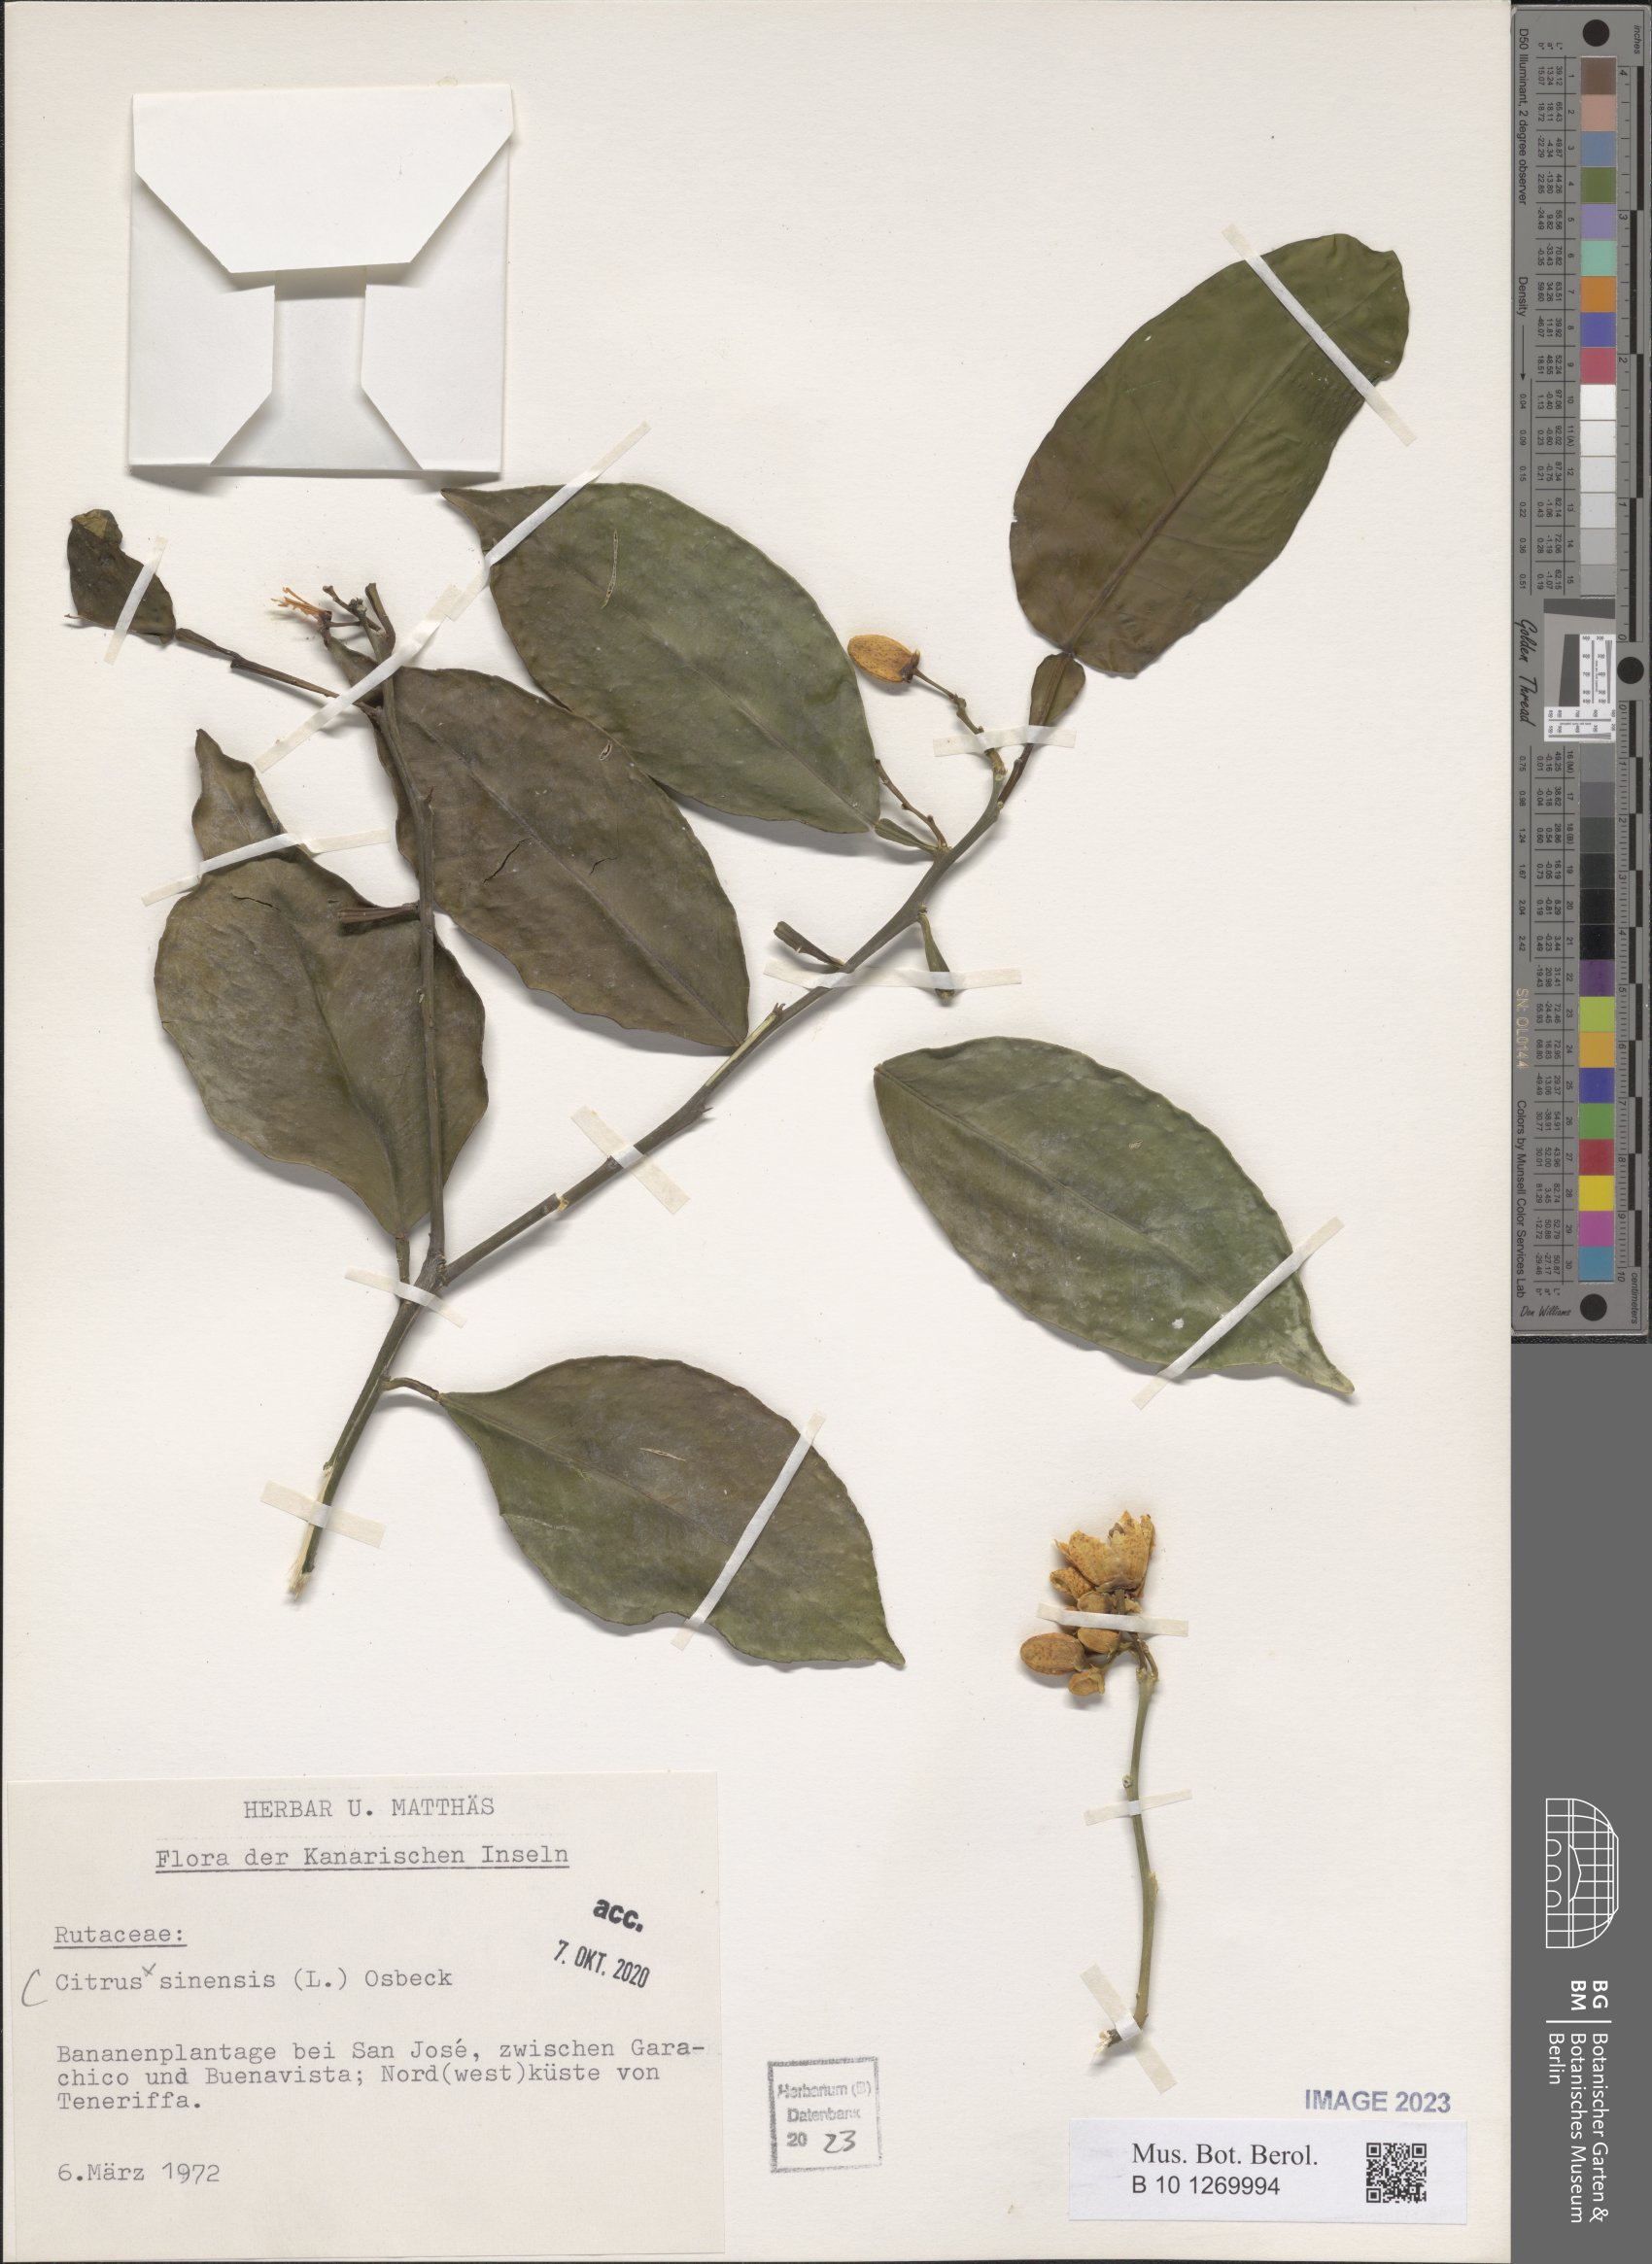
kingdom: Plantae
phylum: Tracheophyta
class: Magnoliopsida
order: Sapindales
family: Rutaceae
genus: Citrus
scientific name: Citrus aurantium
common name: Sour orange
